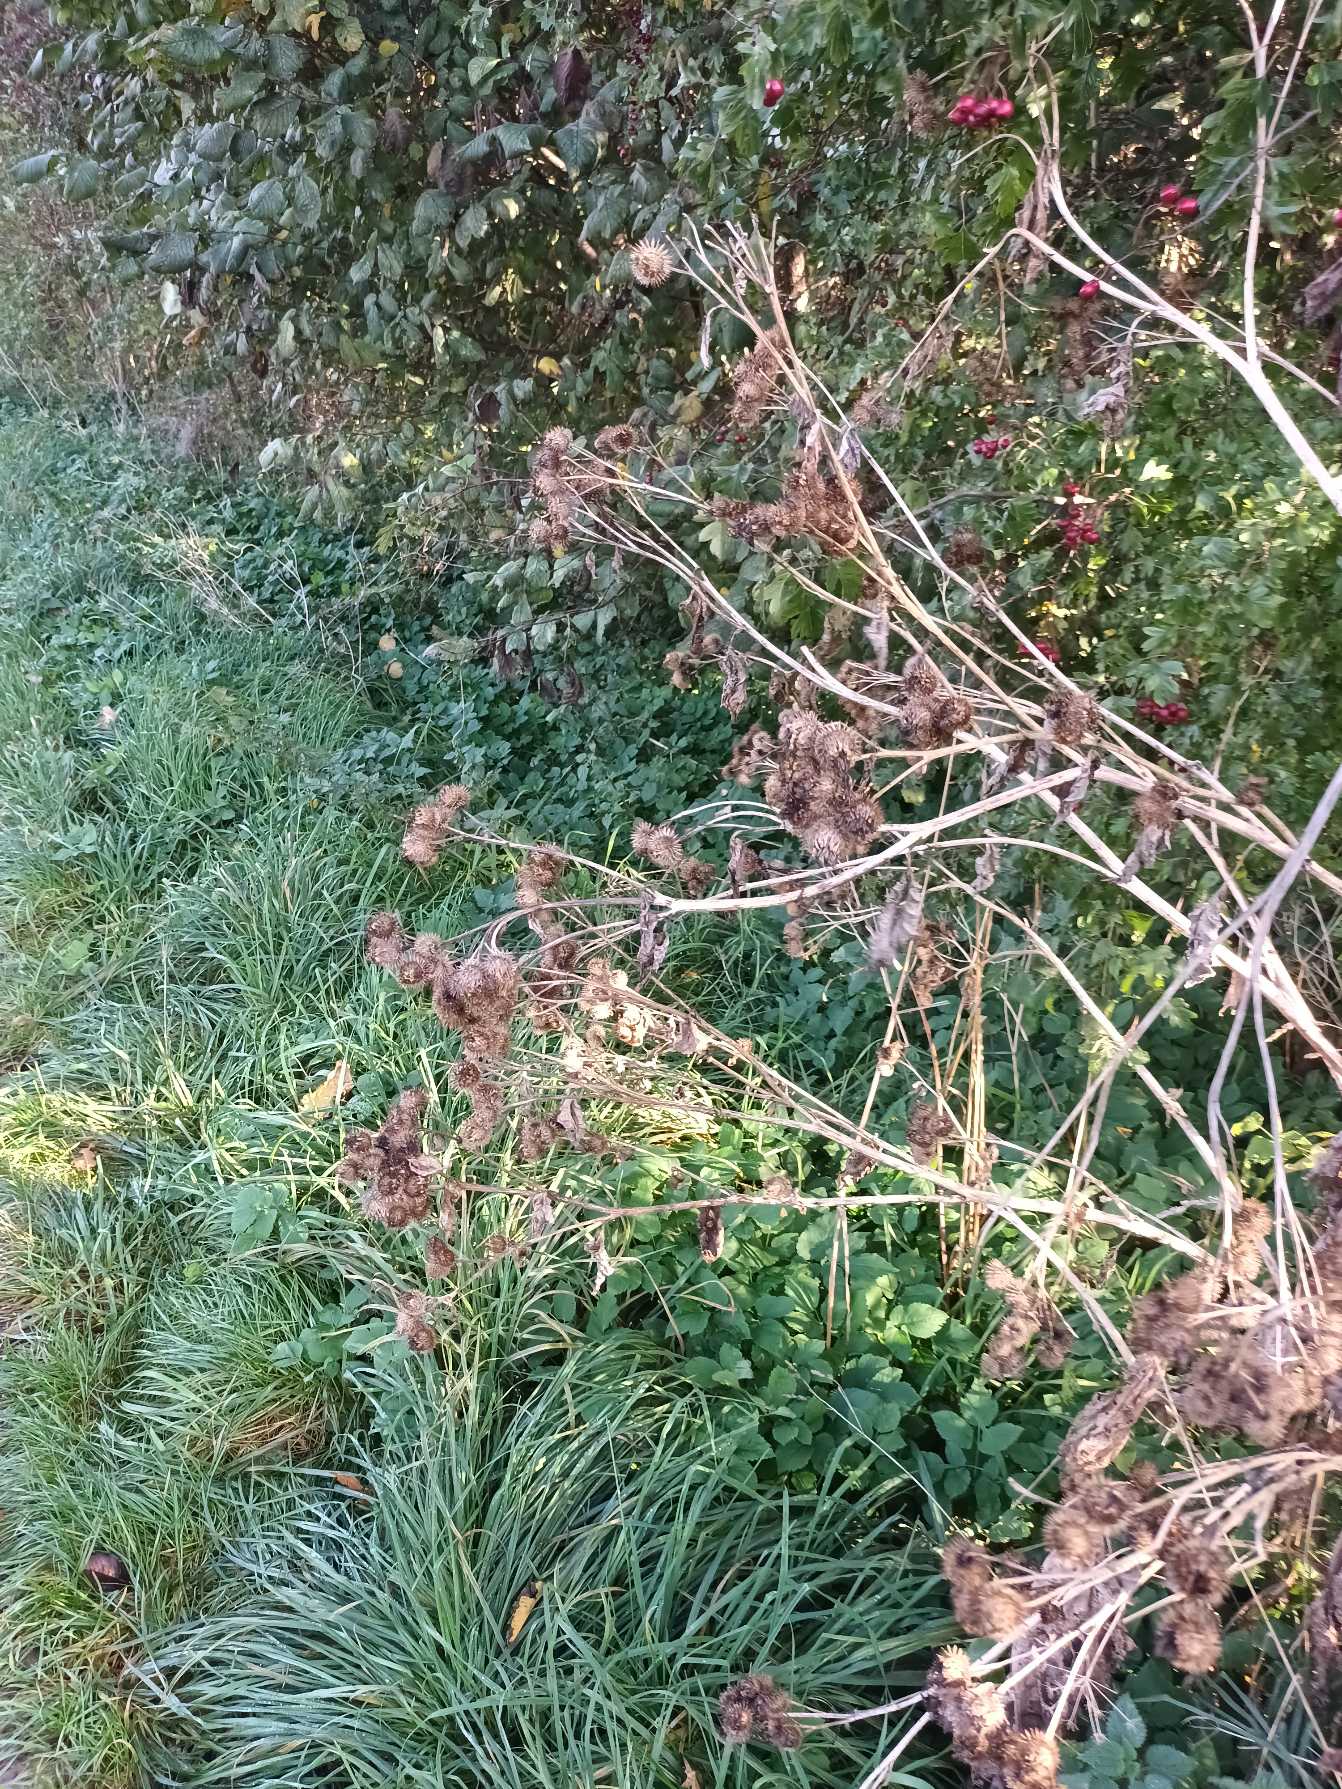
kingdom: Plantae
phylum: Tracheophyta
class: Magnoliopsida
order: Asterales
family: Asteraceae
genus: Arctium
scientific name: Arctium tomentosum
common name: Filtet burre
